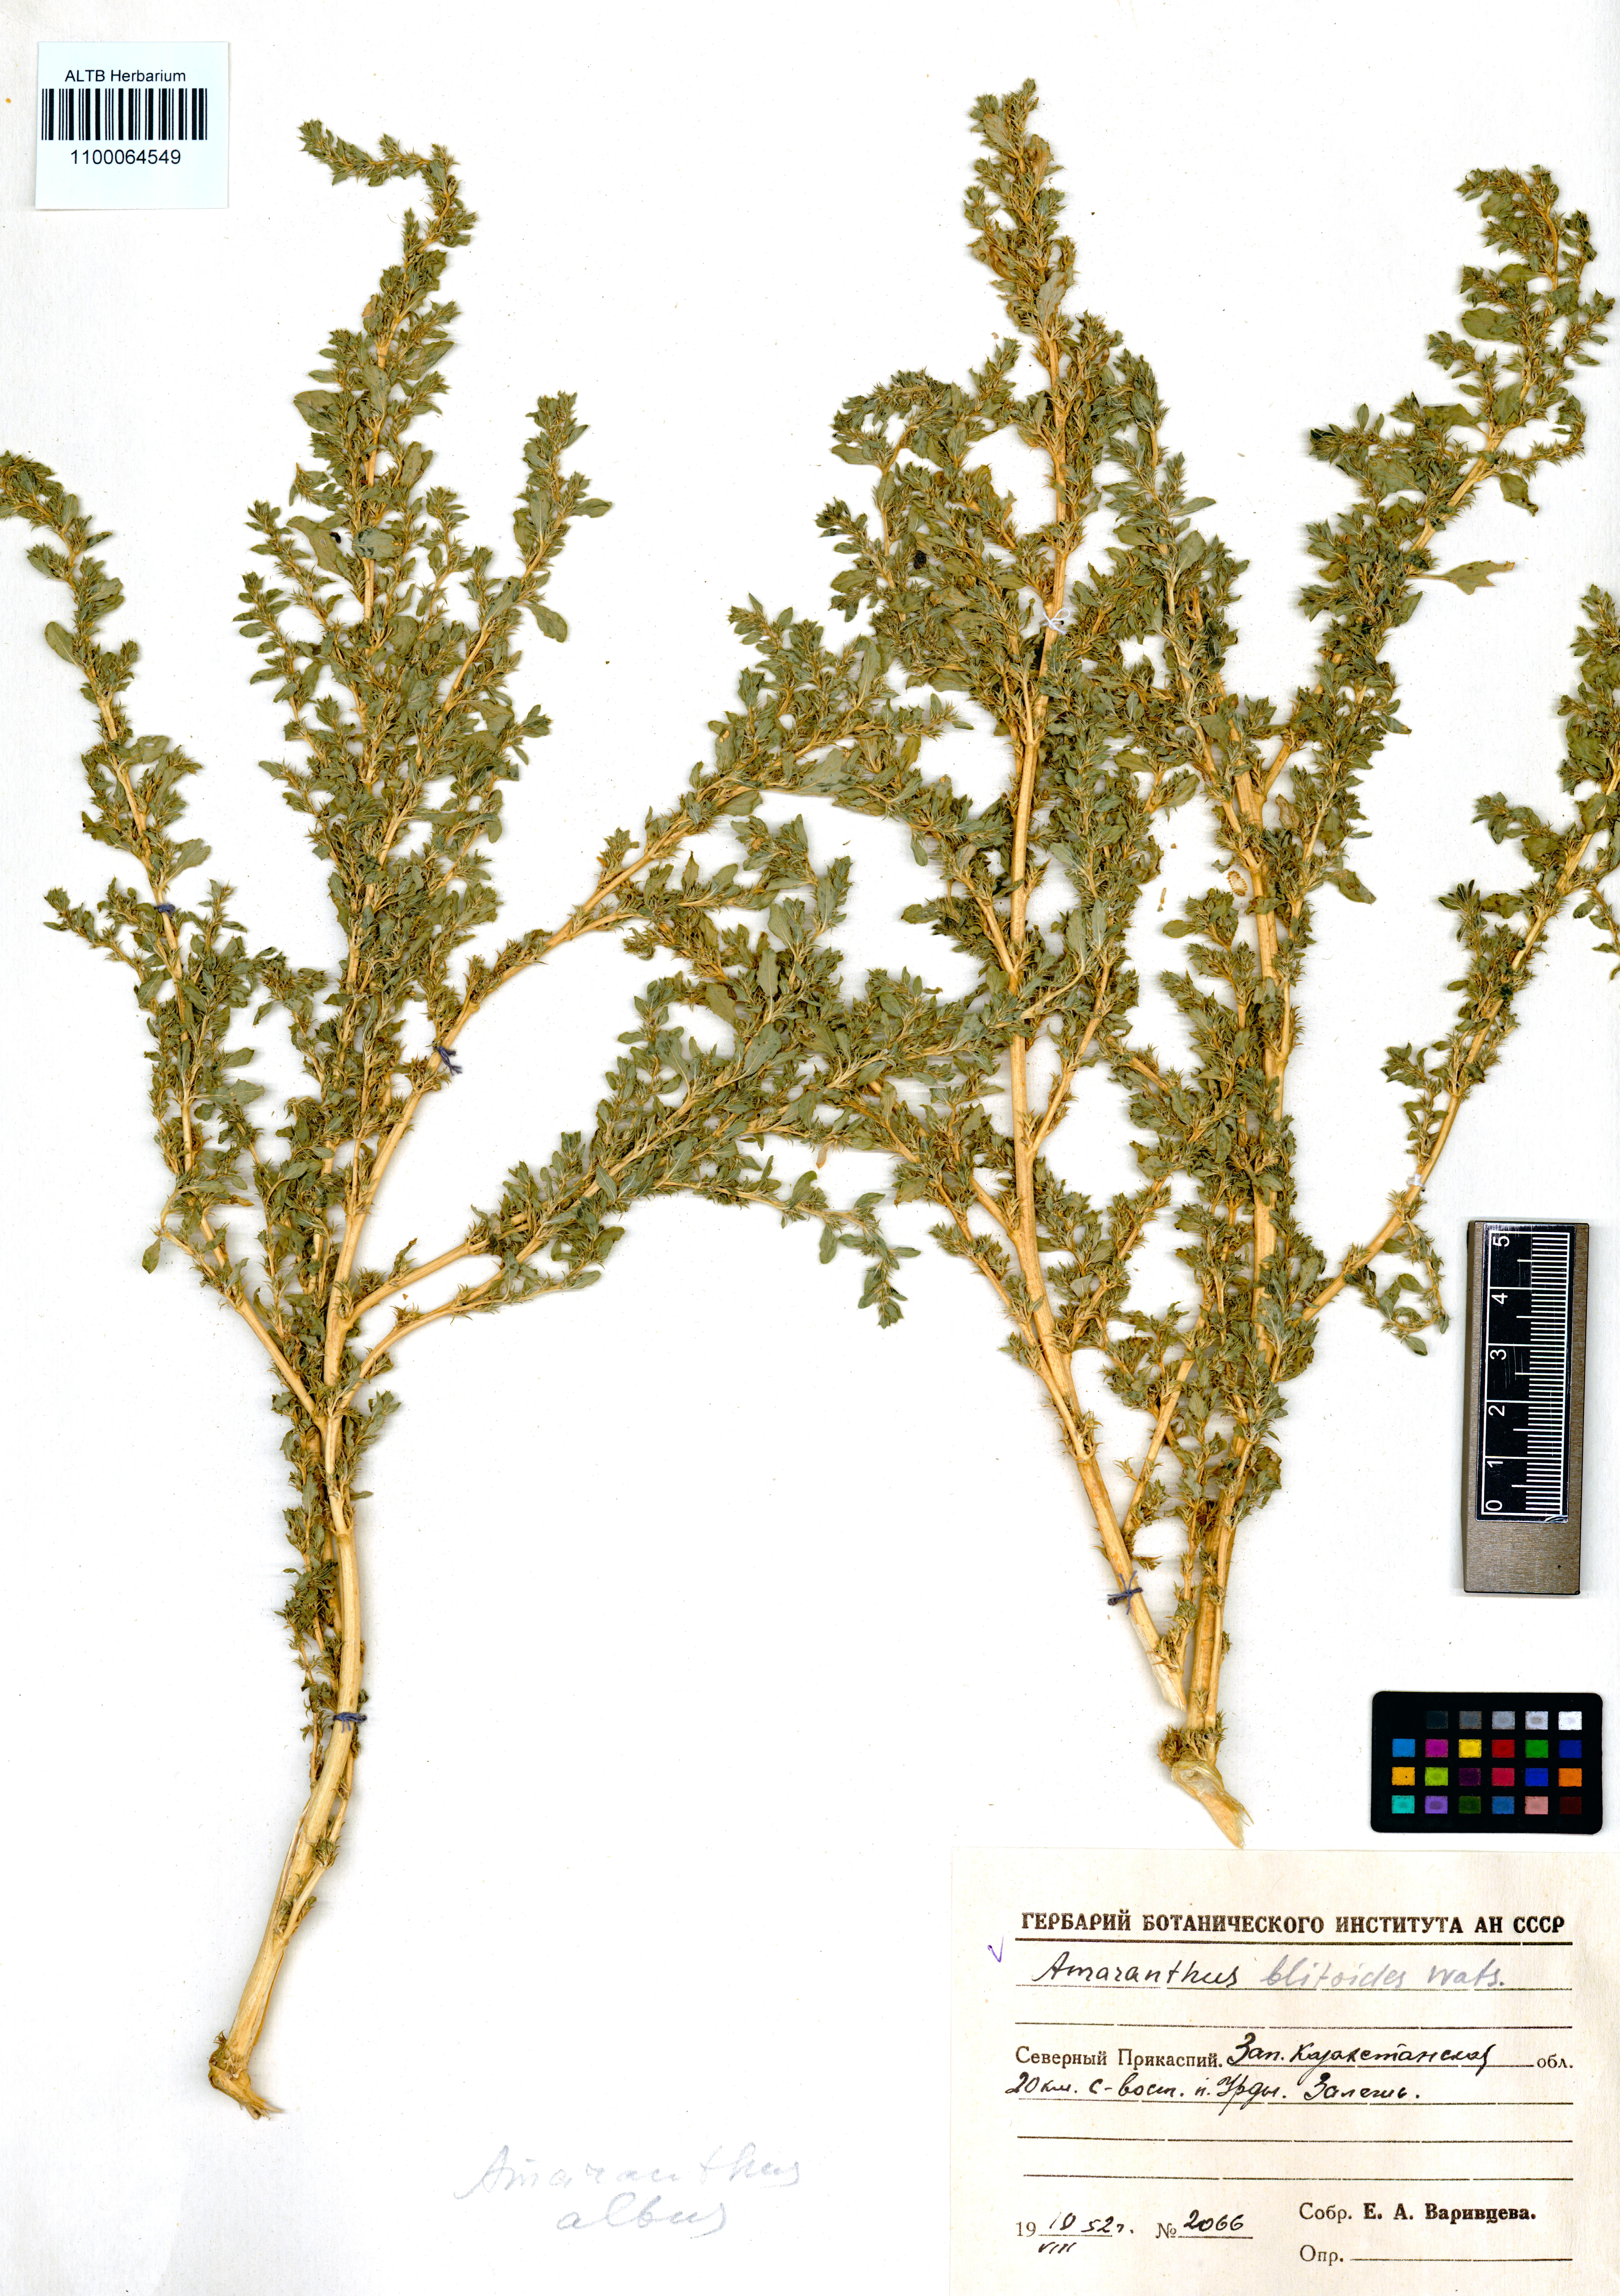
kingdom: Plantae
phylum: Tracheophyta
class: Magnoliopsida
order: Caryophyllales
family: Amaranthaceae
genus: Amaranthus
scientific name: Amaranthus blitoides
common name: Prostrate pigweed
